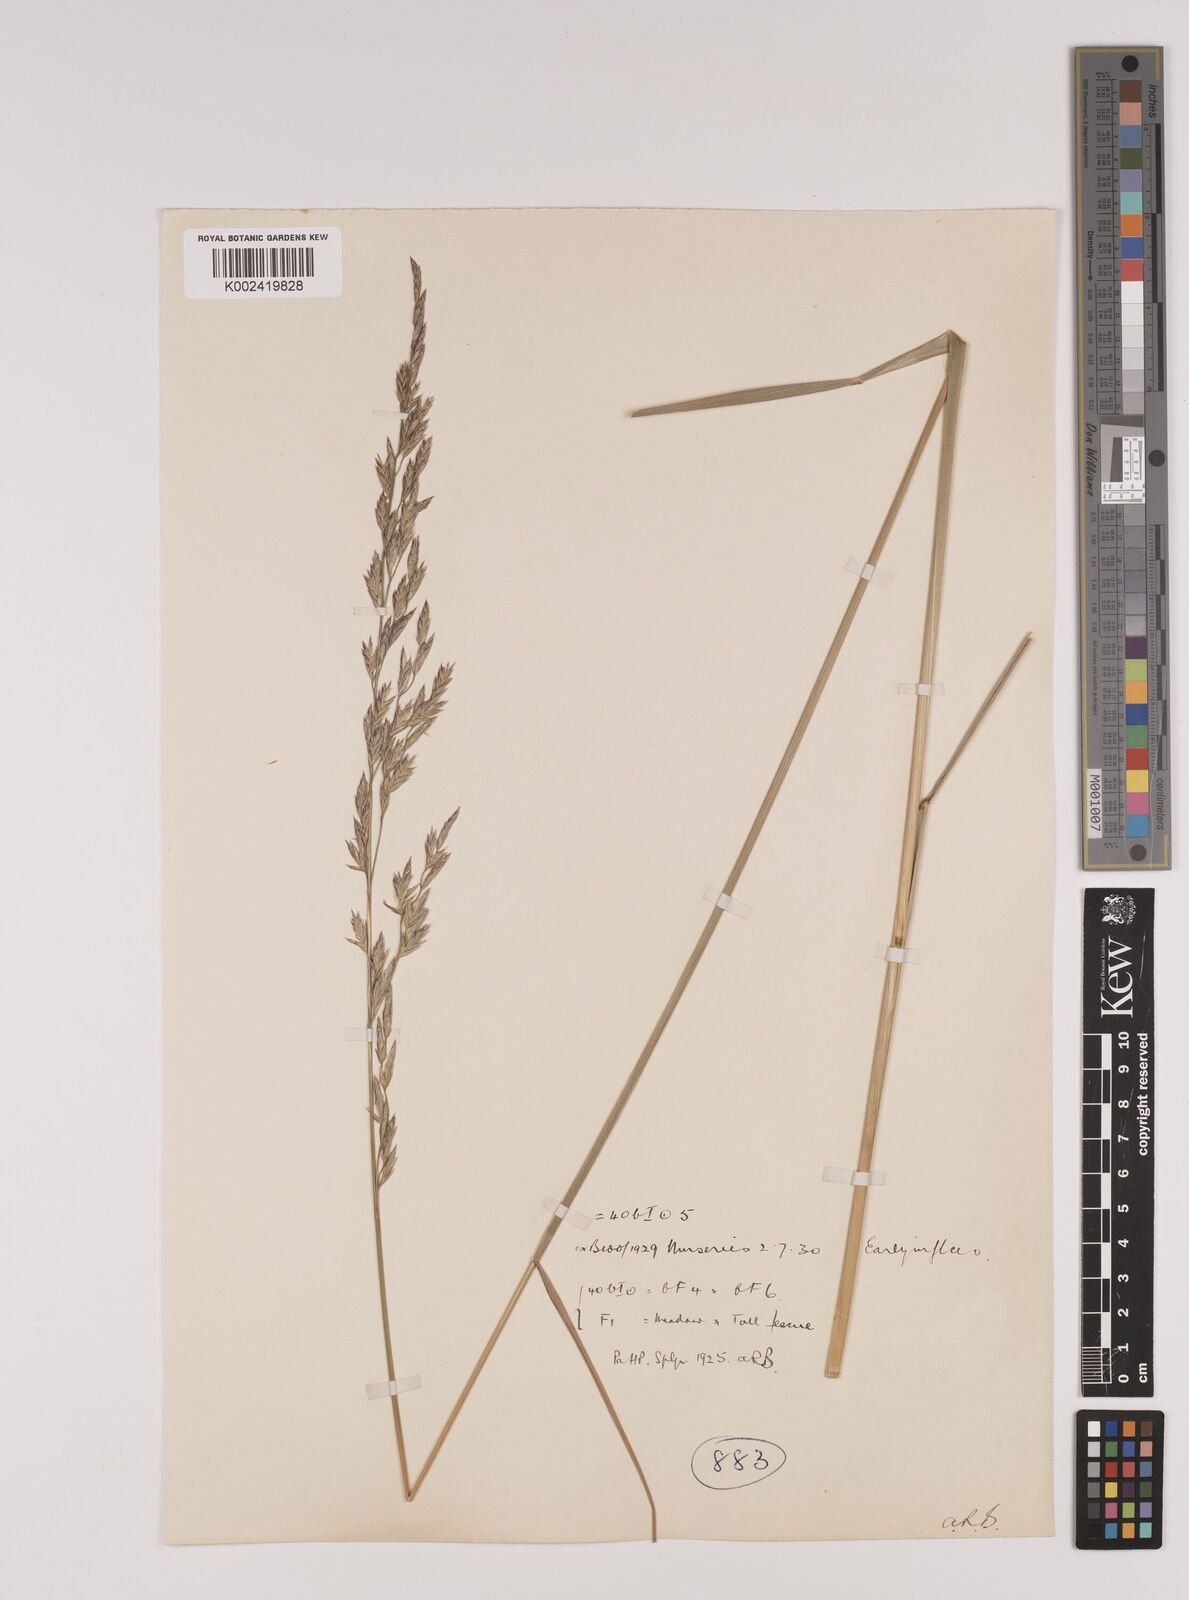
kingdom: Plantae
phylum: Tracheophyta
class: Liliopsida
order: Poales
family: Poaceae
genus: Festuca
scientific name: Festuca rubra
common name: Red fescue
